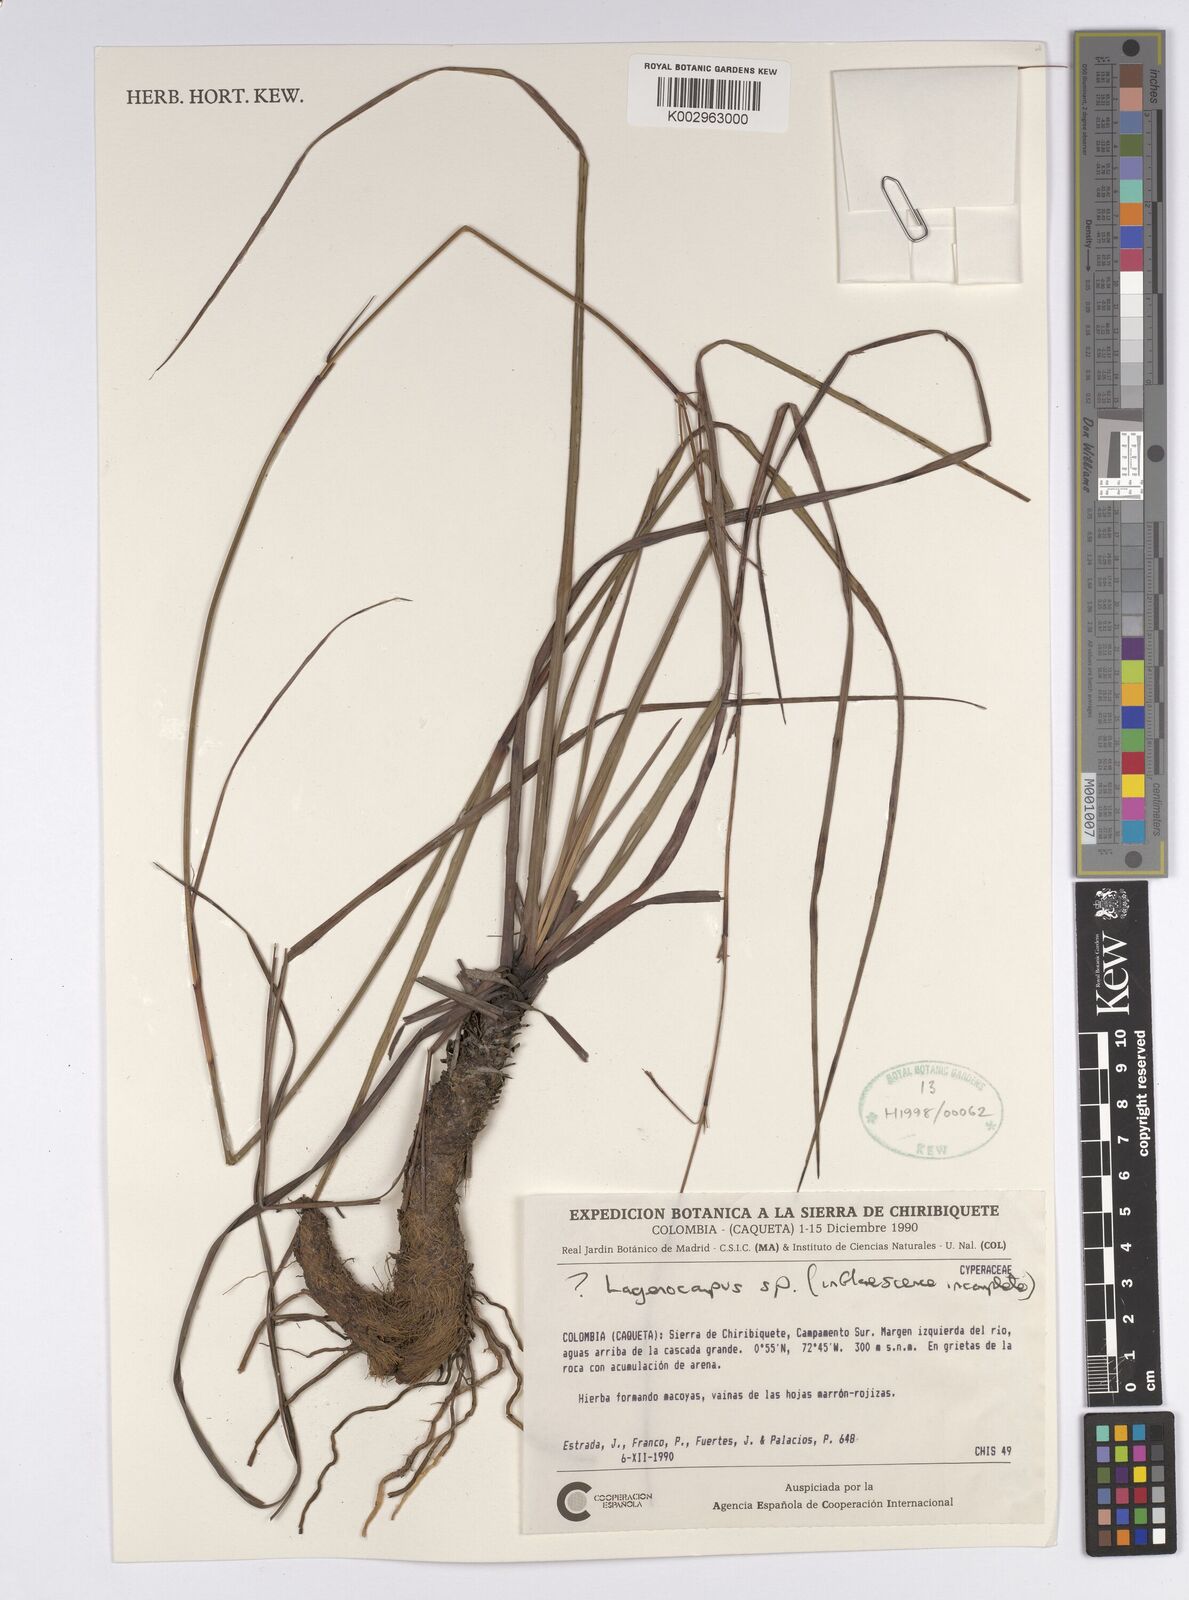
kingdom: Plantae
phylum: Tracheophyta
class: Liliopsida
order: Poales
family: Cyperaceae
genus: Lagenocarpus
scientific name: Lagenocarpus
